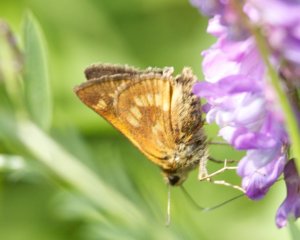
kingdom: Animalia
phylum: Arthropoda
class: Insecta
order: Lepidoptera
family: Hesperiidae
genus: Polites
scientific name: Polites
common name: Long Dash Skipper
